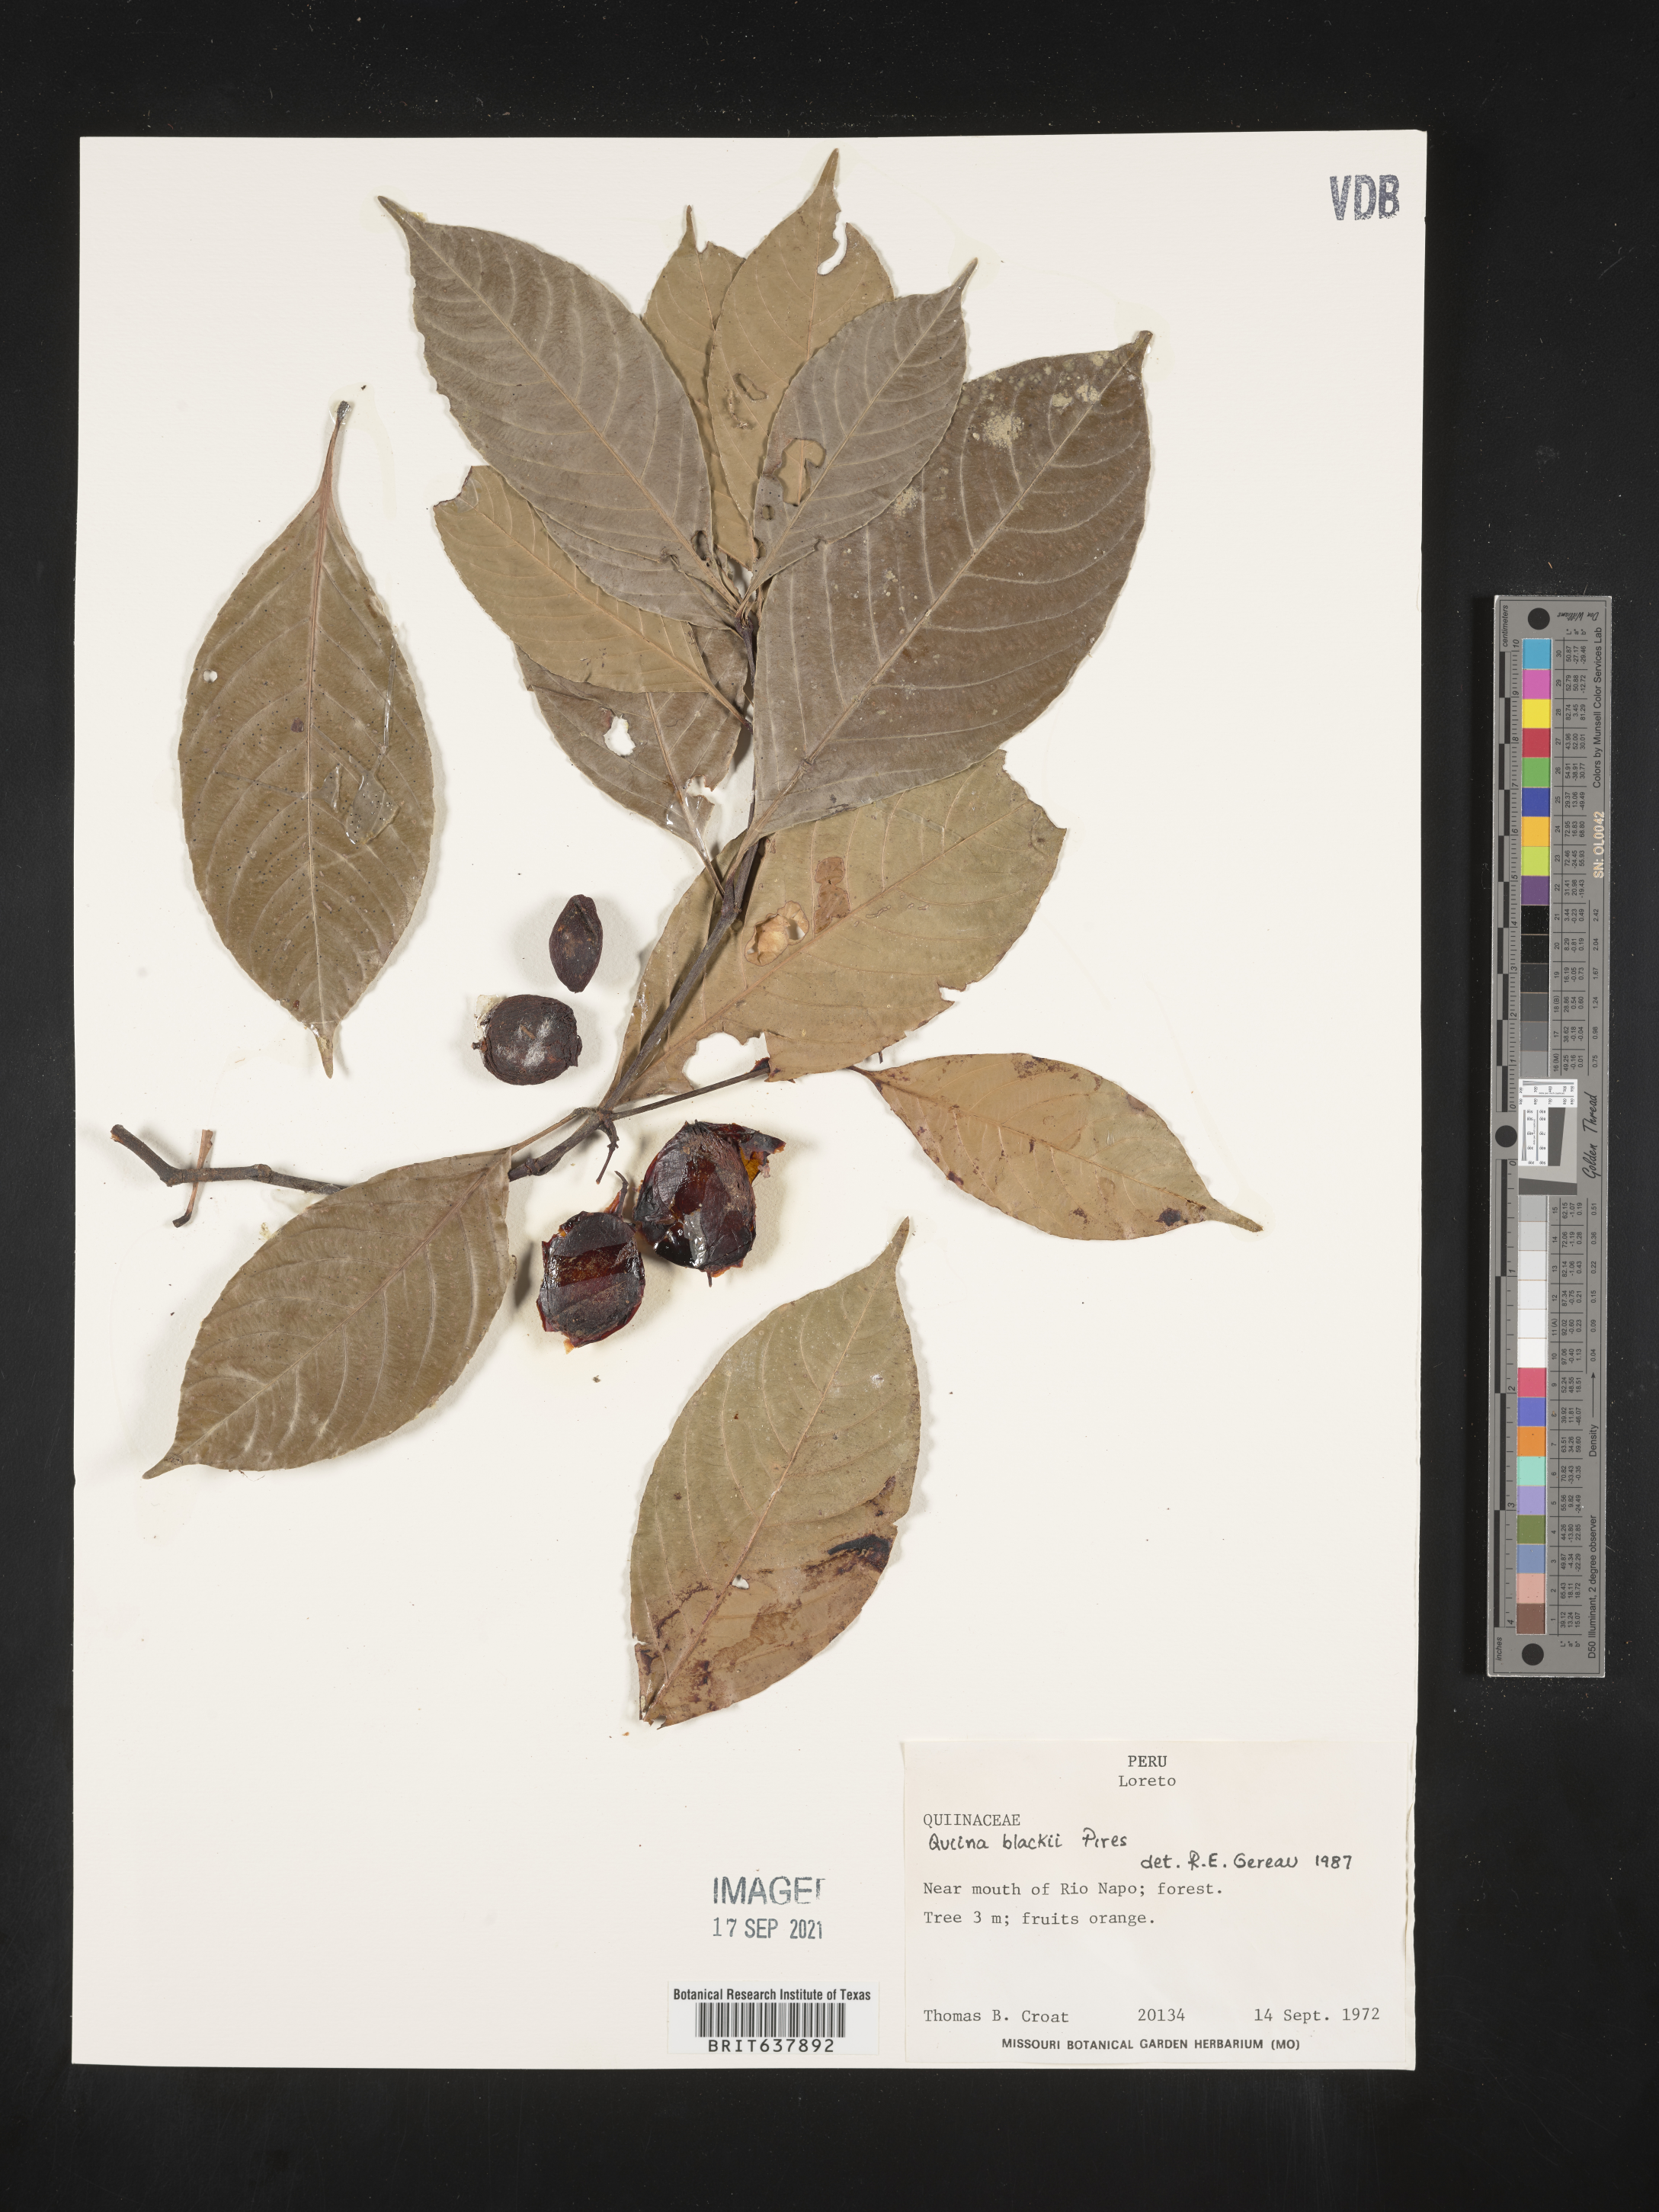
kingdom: Plantae
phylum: Tracheophyta
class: Magnoliopsida
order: Malpighiales
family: Quiinaceae
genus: Quiina
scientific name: Quiina
